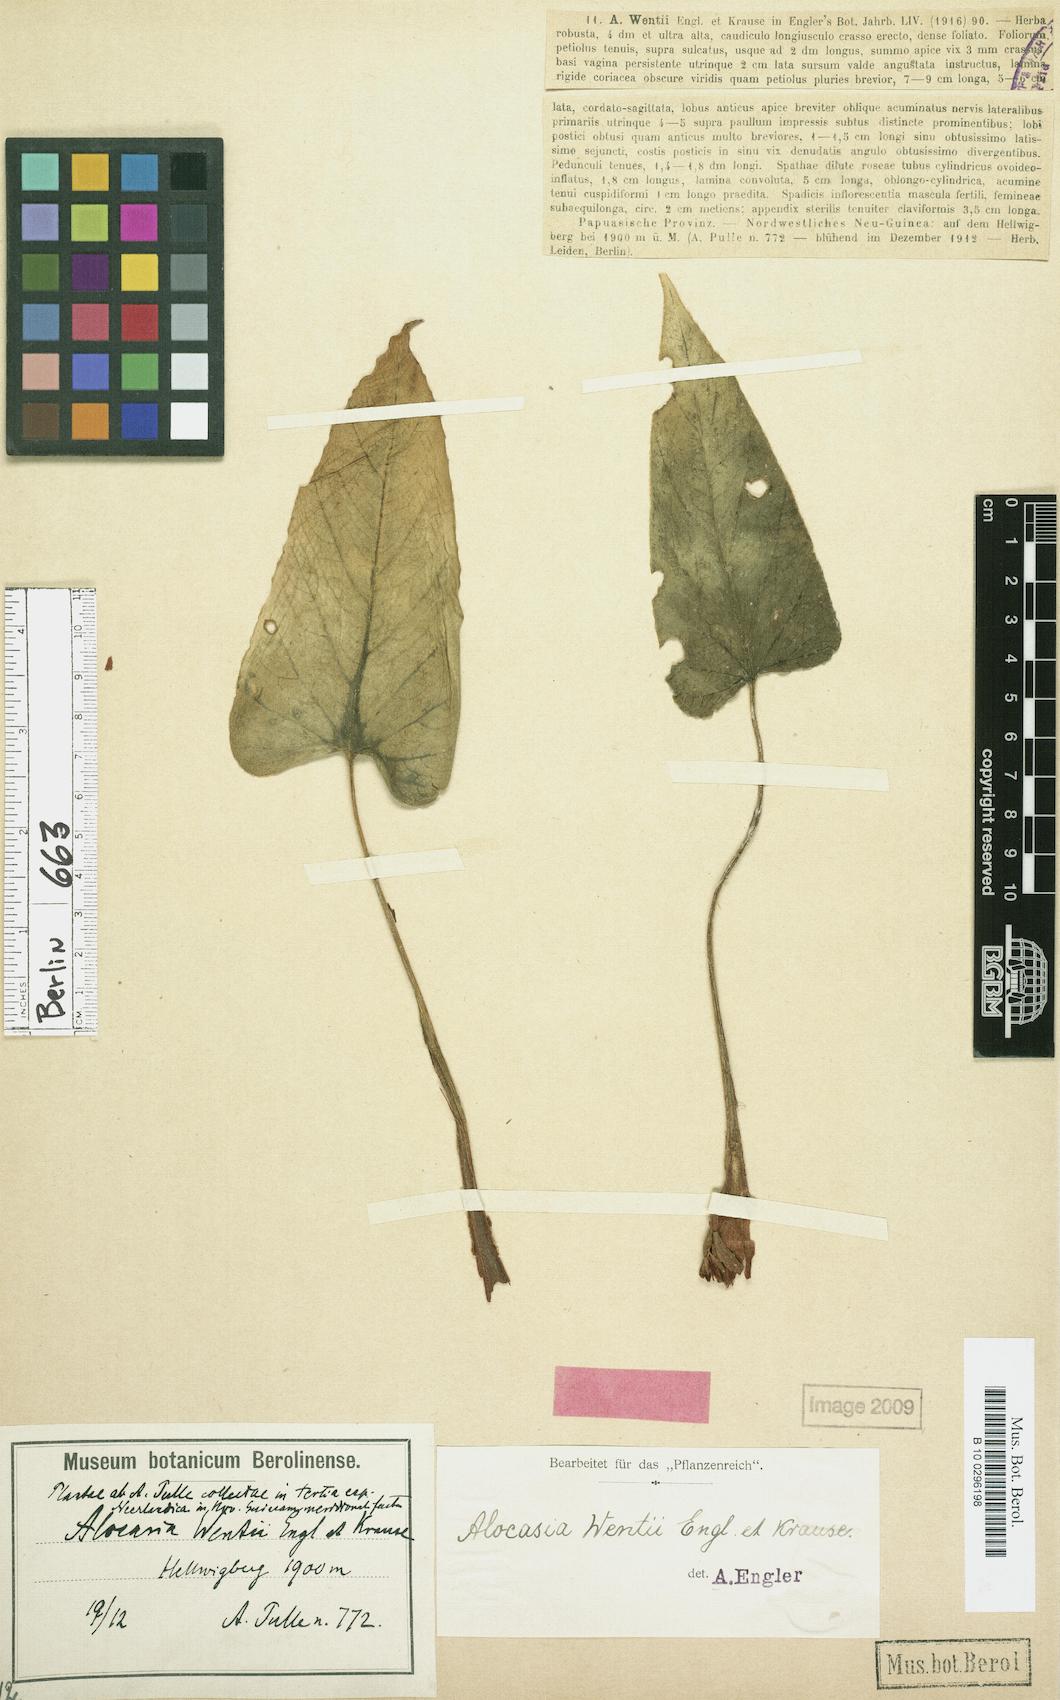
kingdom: Plantae
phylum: Tracheophyta
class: Liliopsida
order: Alismatales
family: Araceae
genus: Alocasia
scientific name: Alocasia wentii
